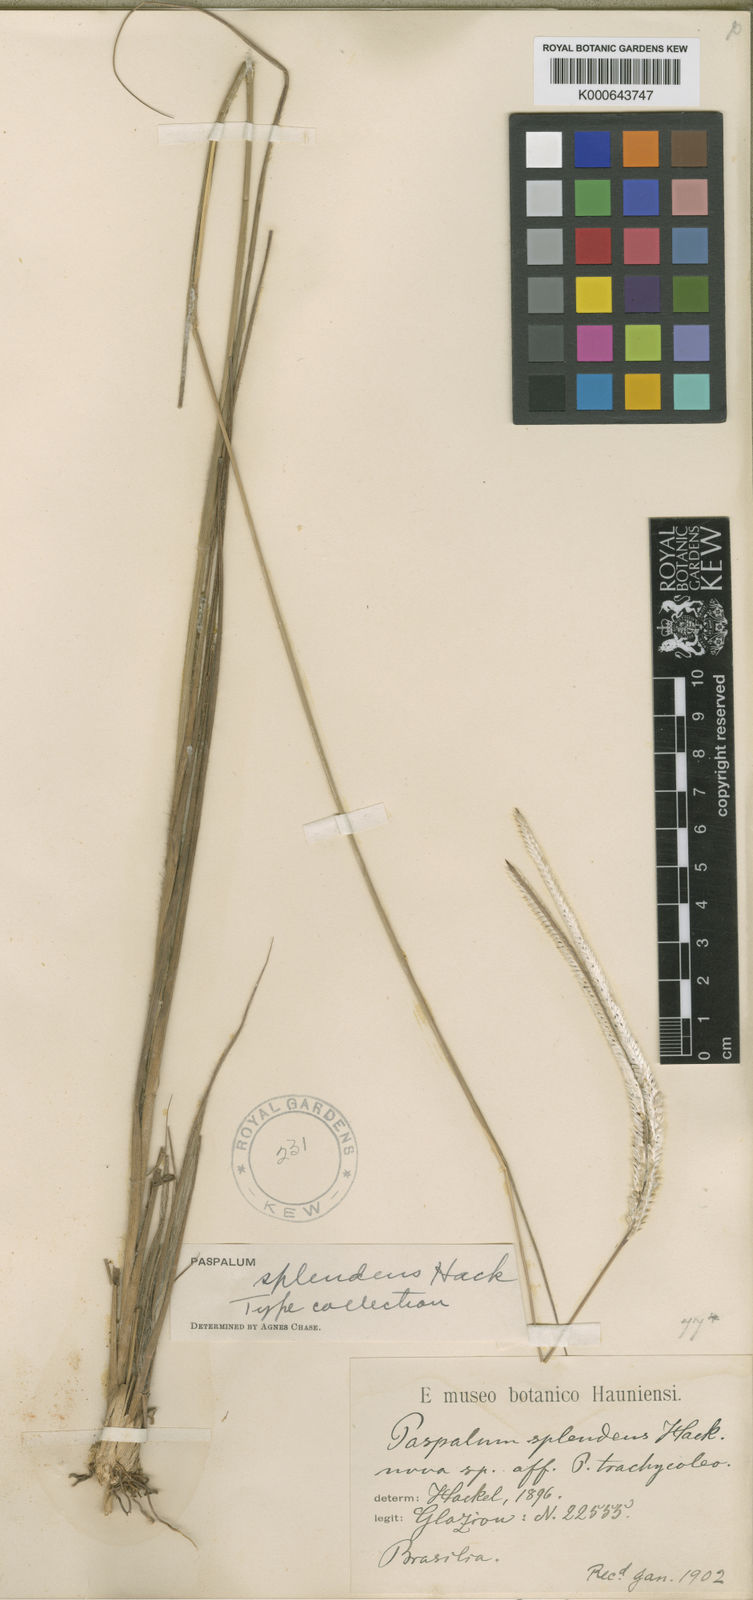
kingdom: Plantae
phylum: Tracheophyta
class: Liliopsida
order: Poales
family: Poaceae
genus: Paspalum
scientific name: Paspalum eucomum
